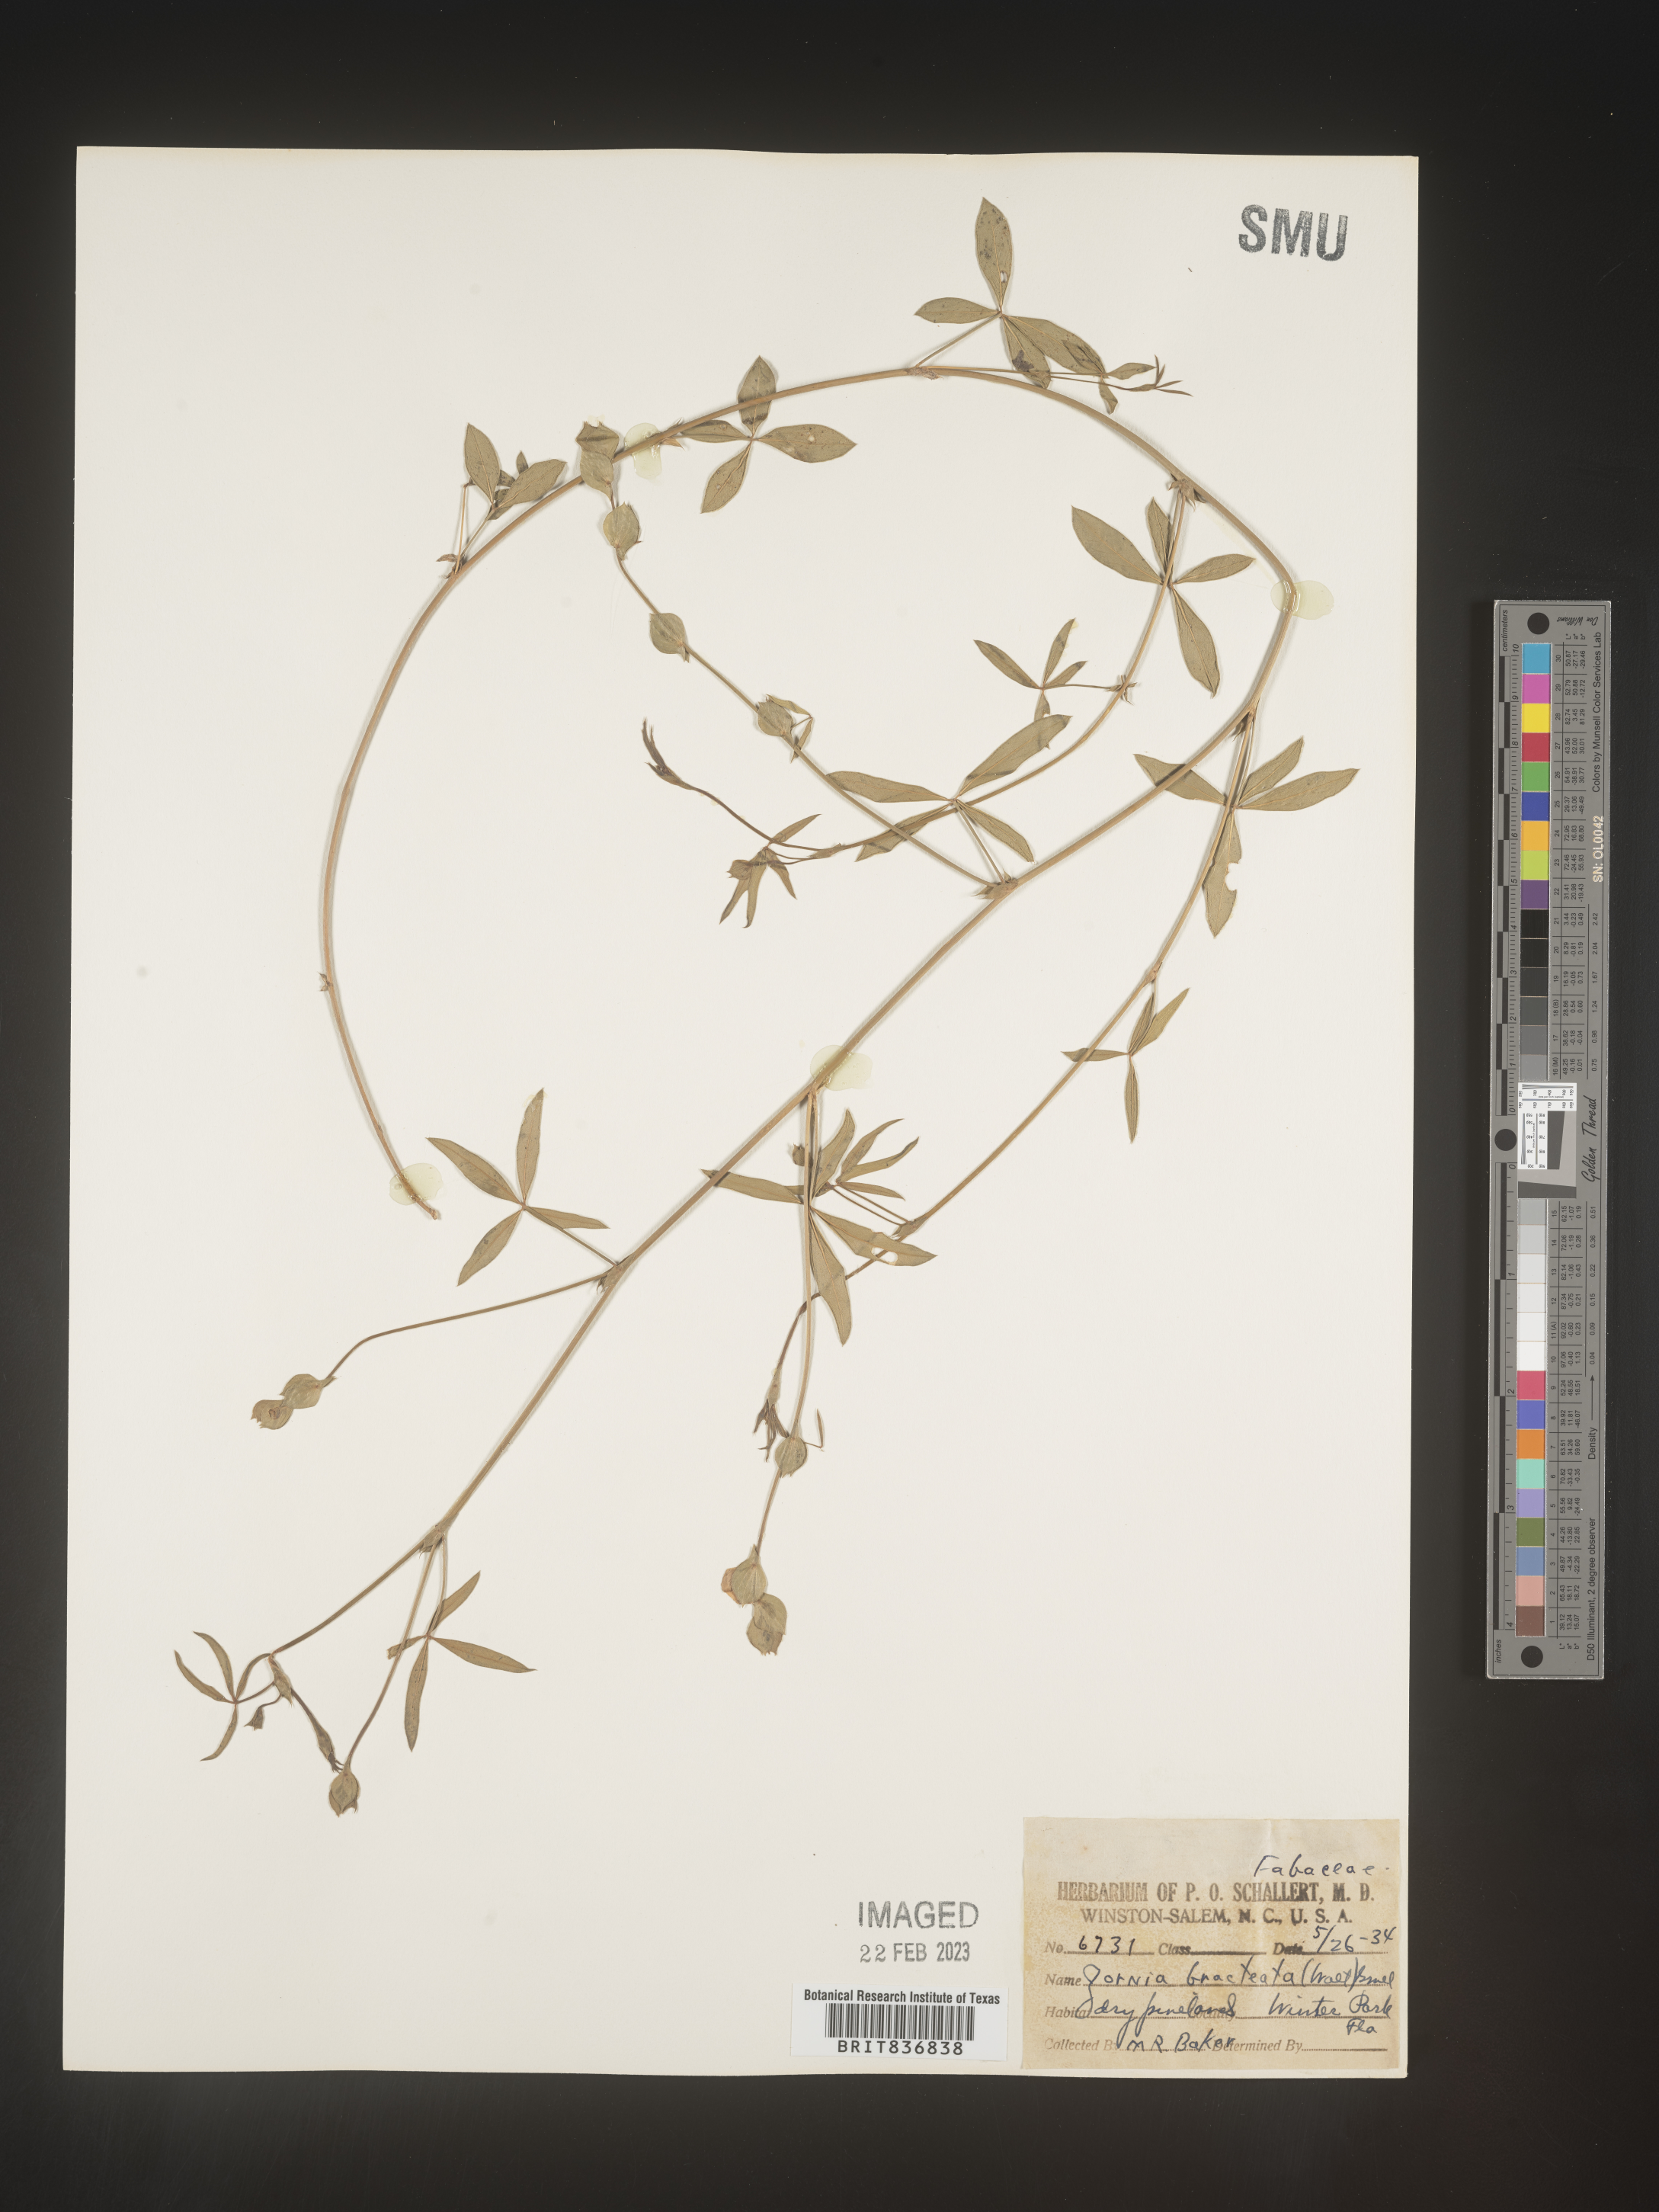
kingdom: Plantae
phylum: Tracheophyta
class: Magnoliopsida
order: Fabales
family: Fabaceae
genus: Zornia
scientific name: Zornia
